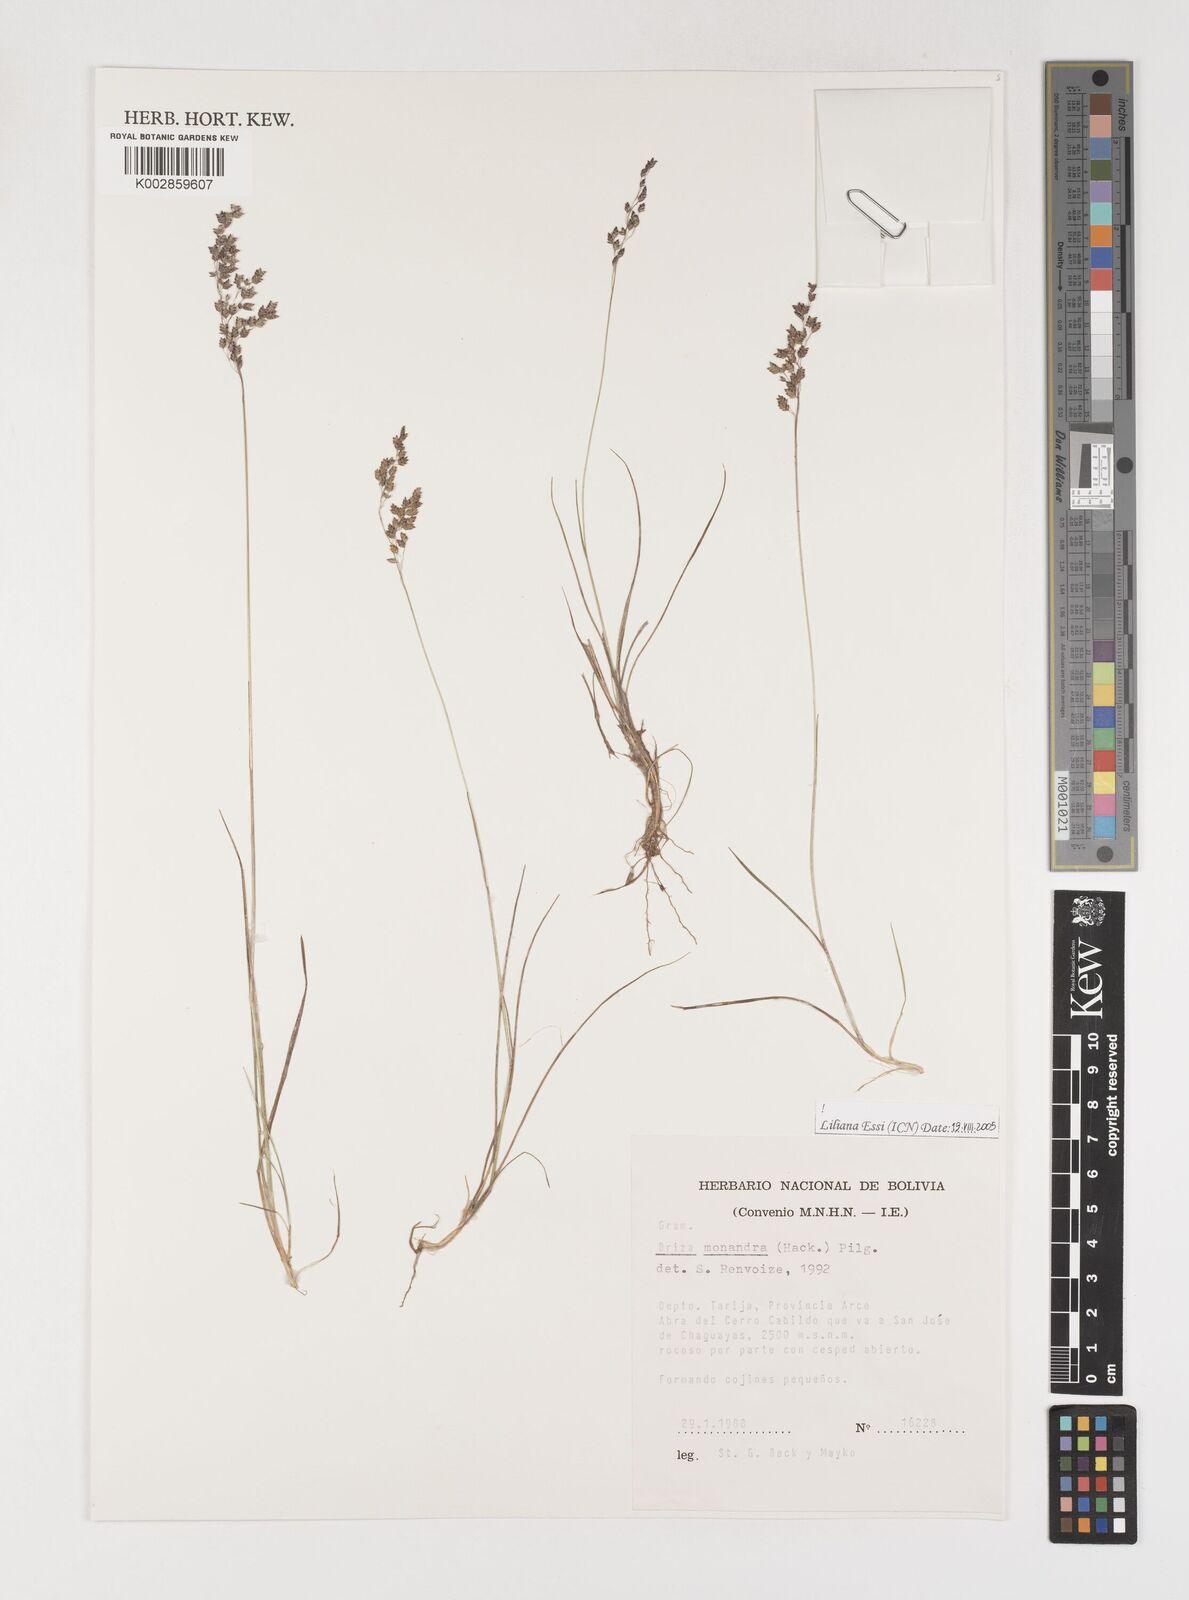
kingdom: Plantae
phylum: Tracheophyta
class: Liliopsida
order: Poales
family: Poaceae
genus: Poidium
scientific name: Poidium monandrum
